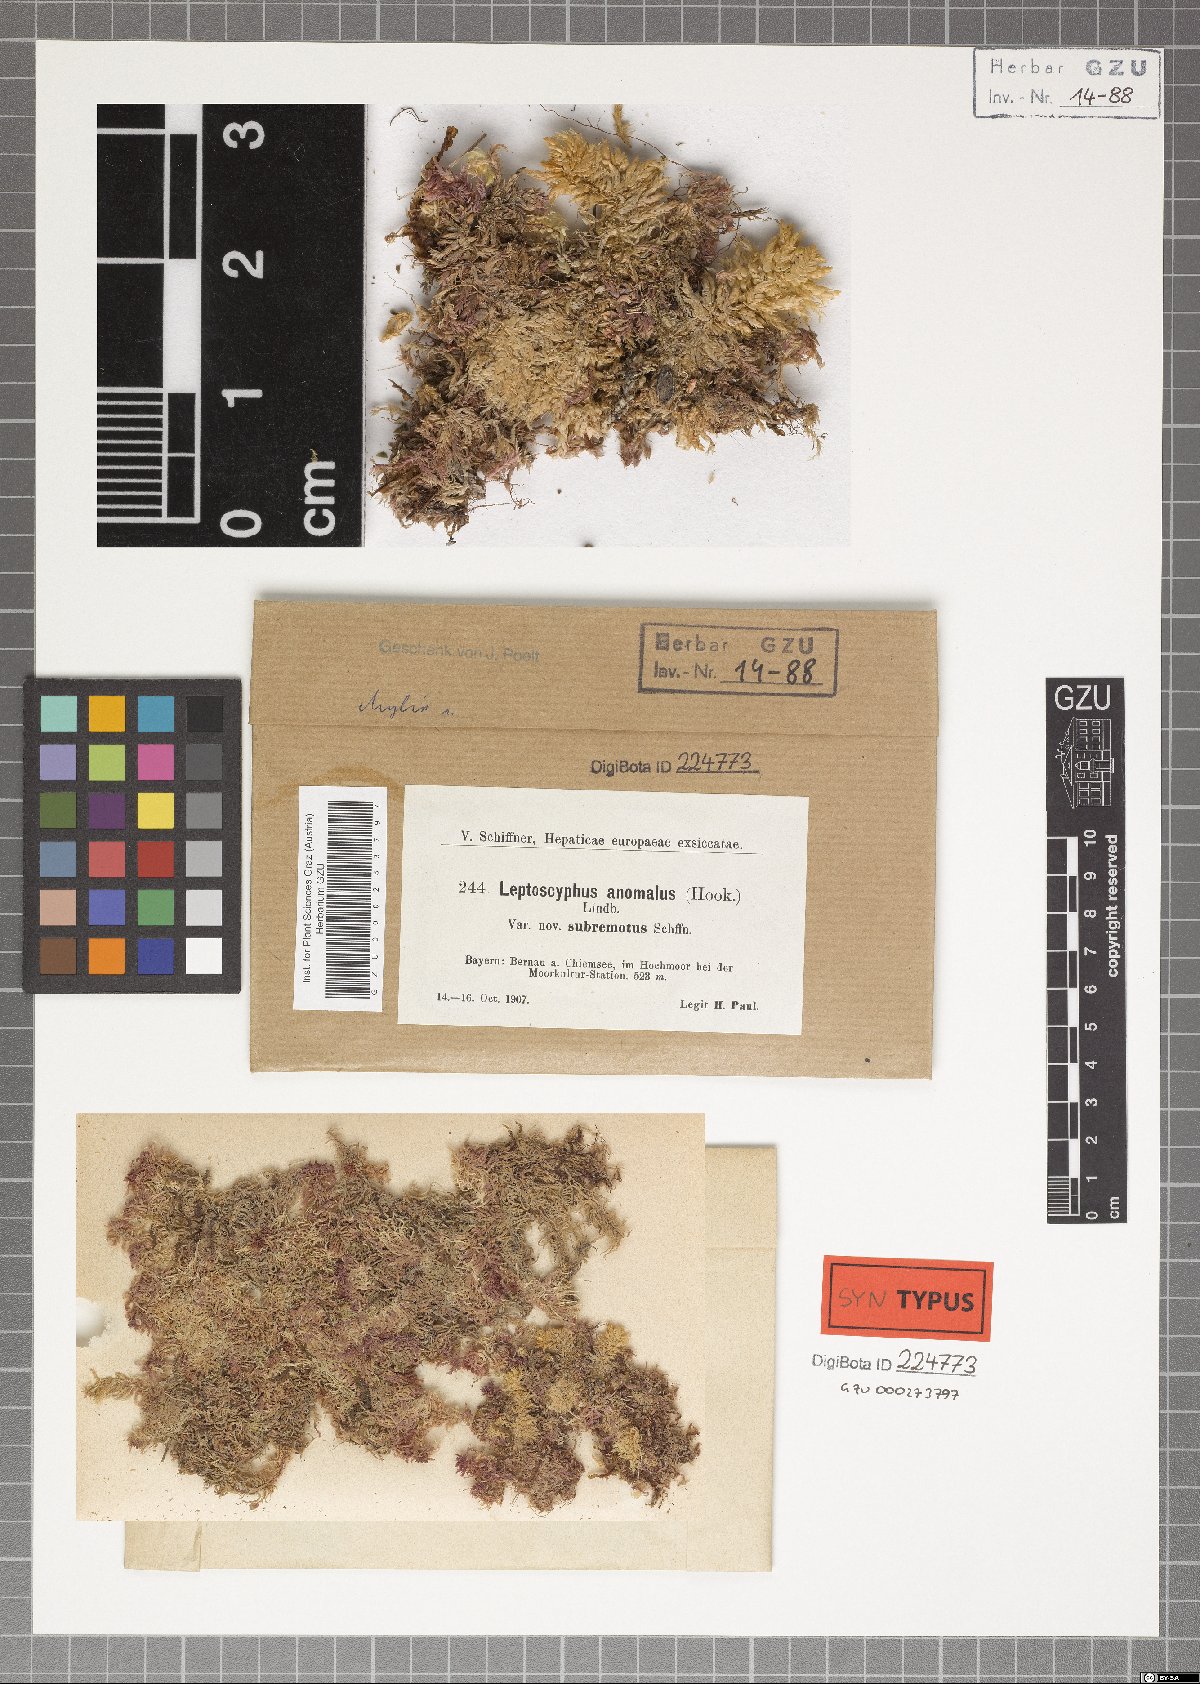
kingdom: Plantae
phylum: Marchantiophyta
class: Jungermanniopsida
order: Jungermanniales
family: Myliaceae
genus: Mylia
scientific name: Mylia anomala
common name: Anomalous flapwort
